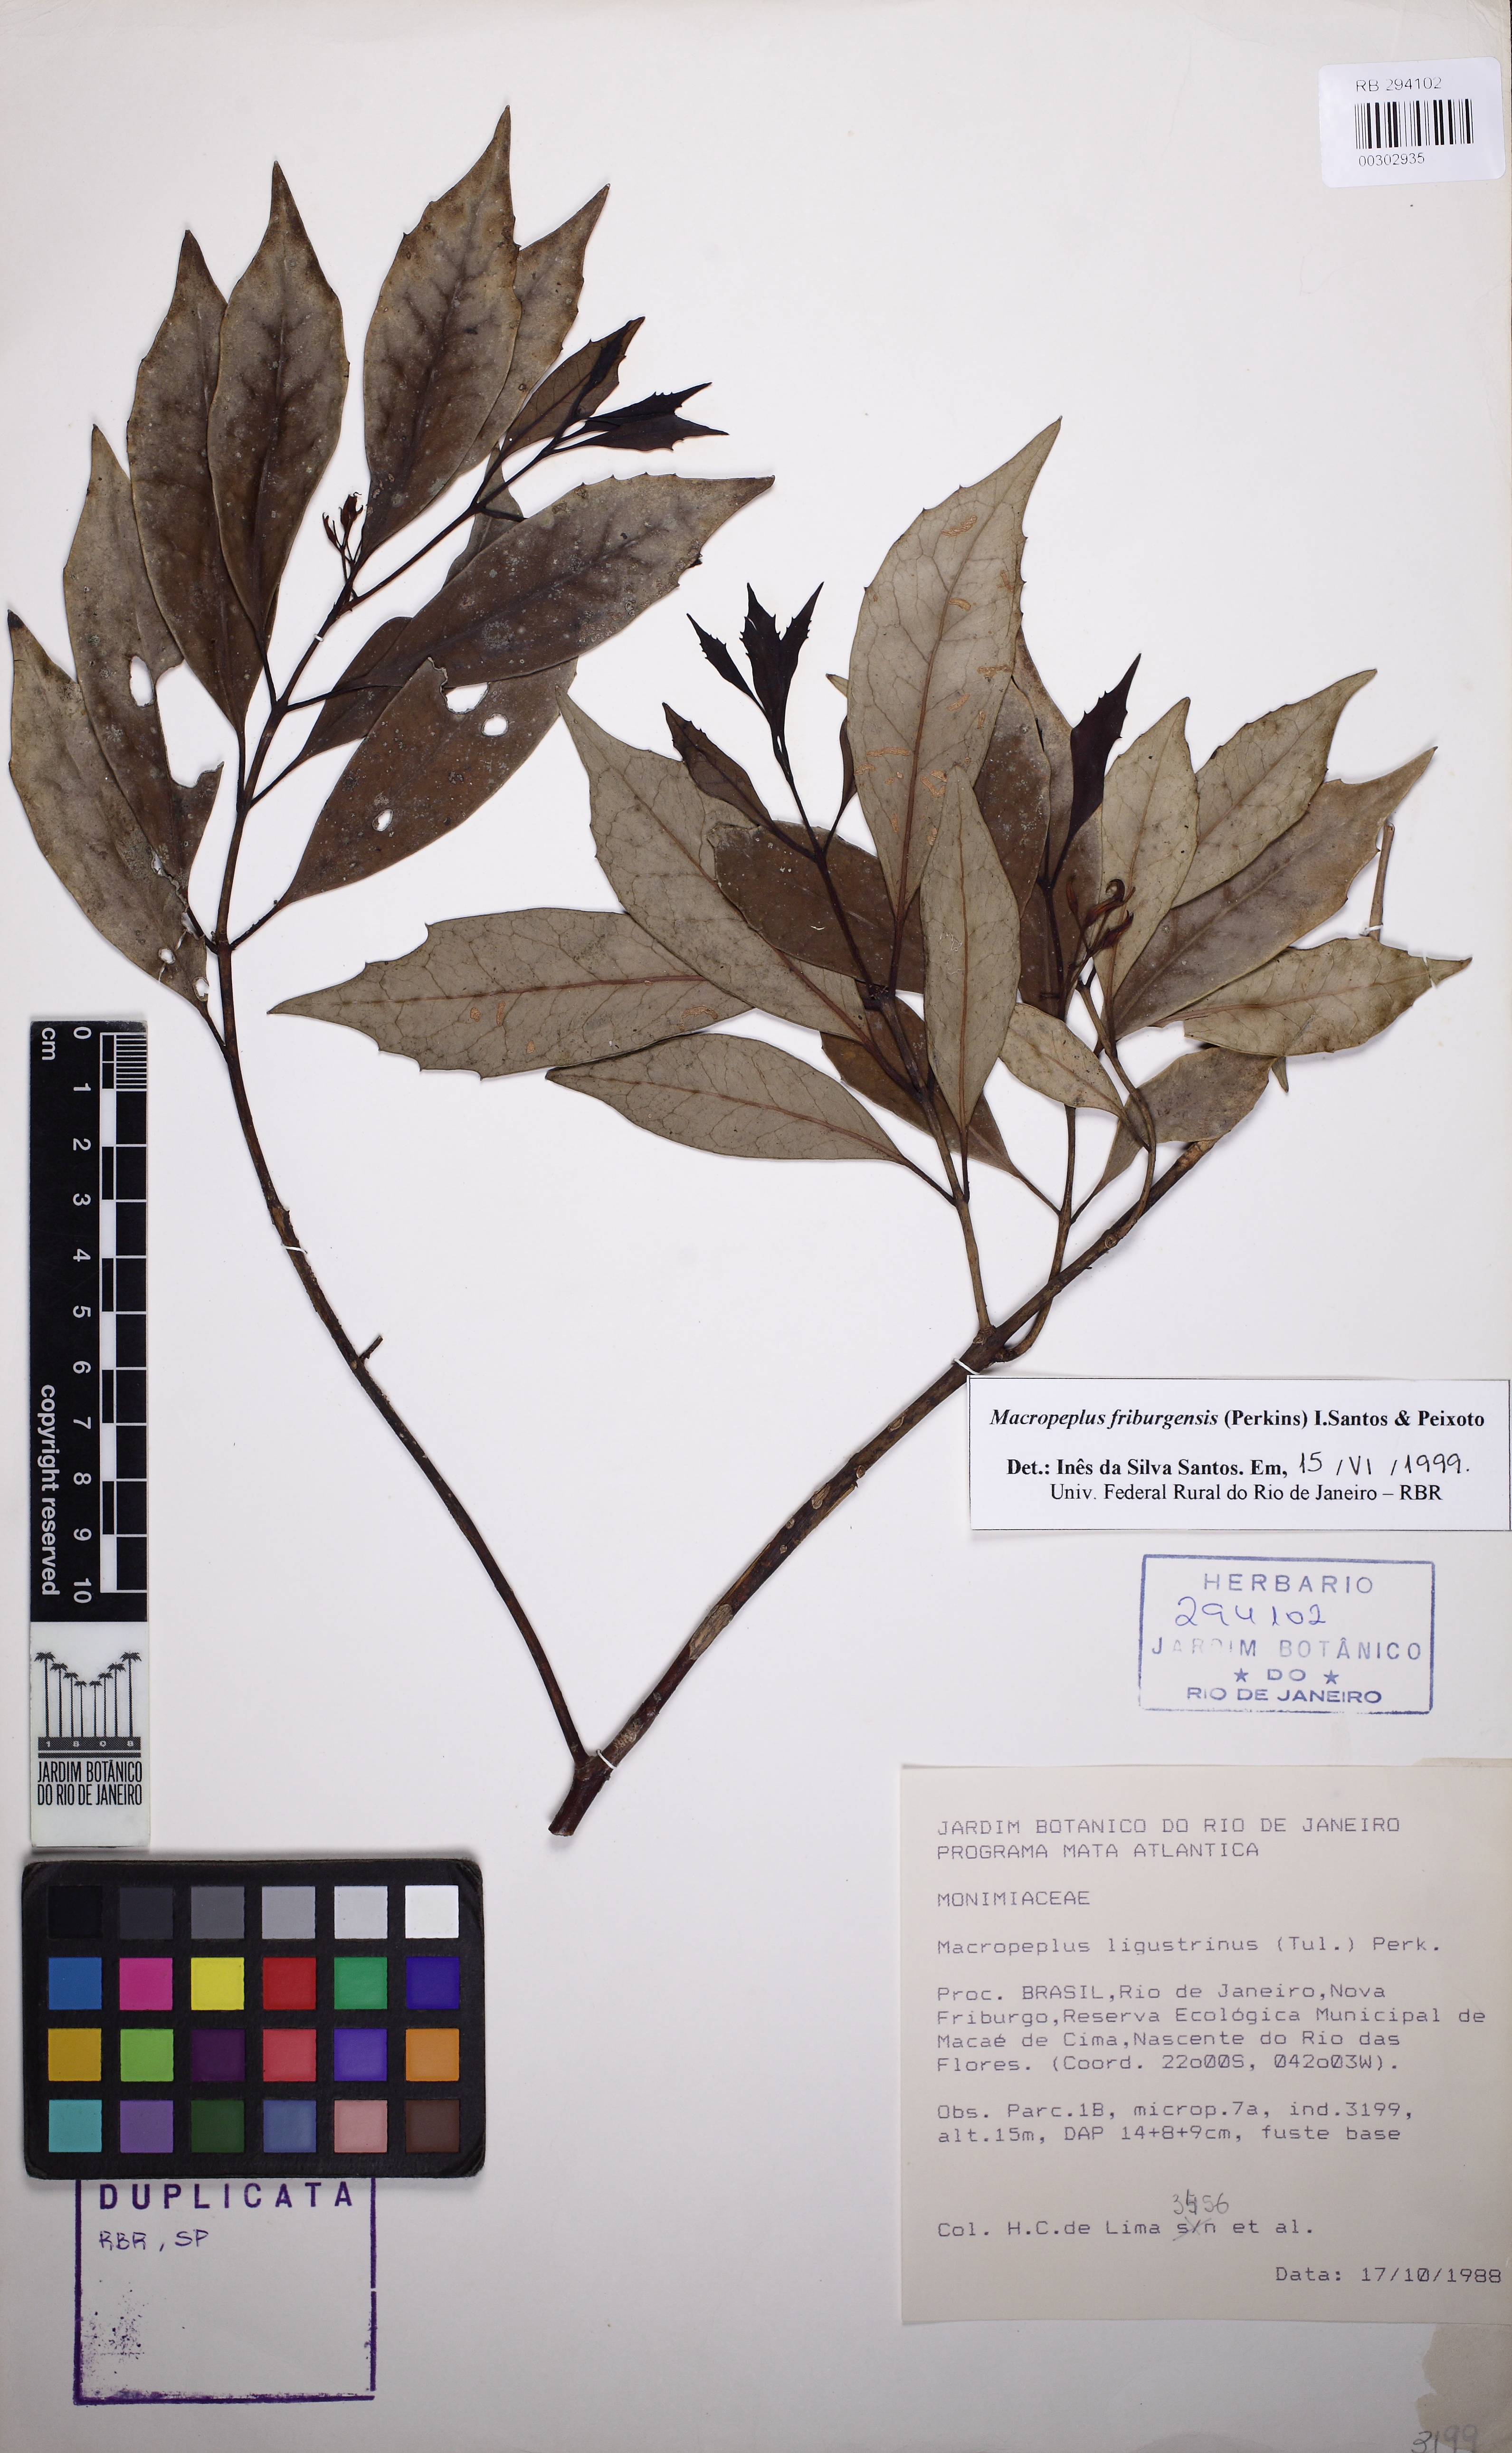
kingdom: Plantae
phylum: Tracheophyta
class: Magnoliopsida
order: Laurales
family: Monimiaceae
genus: Macropeplus
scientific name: Macropeplus friburgensis
